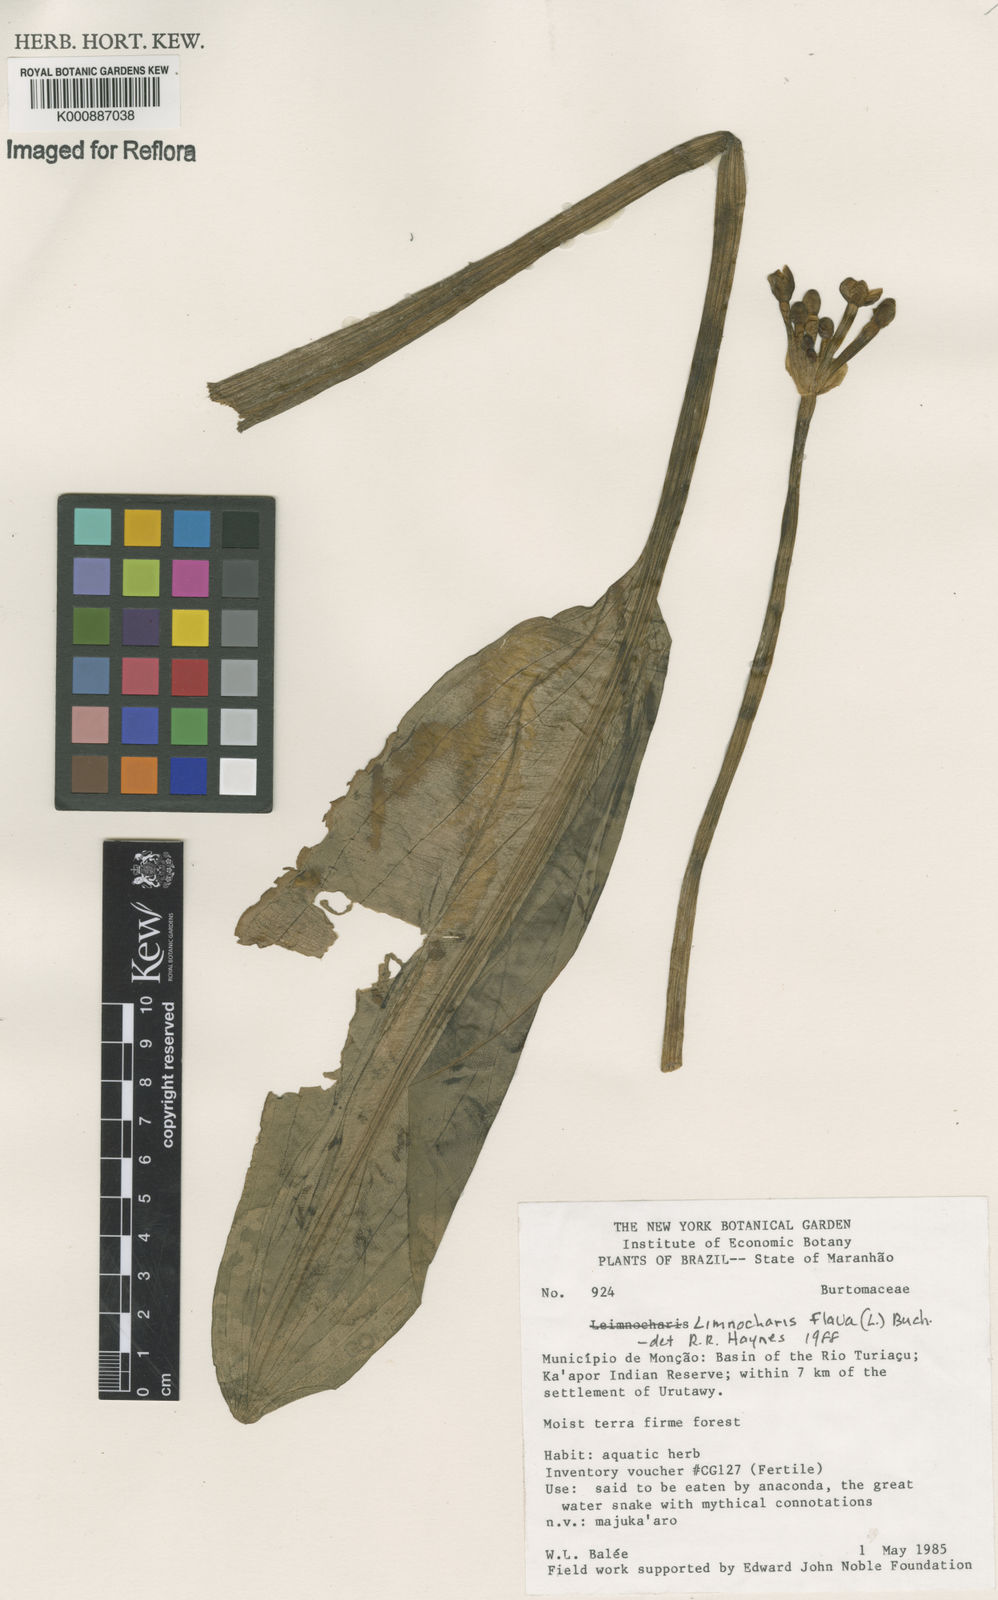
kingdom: Plantae
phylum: Tracheophyta
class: Liliopsida
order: Alismatales
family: Alismataceae
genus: Limnocharis
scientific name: Limnocharis flava
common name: Sawah-flower-rush
